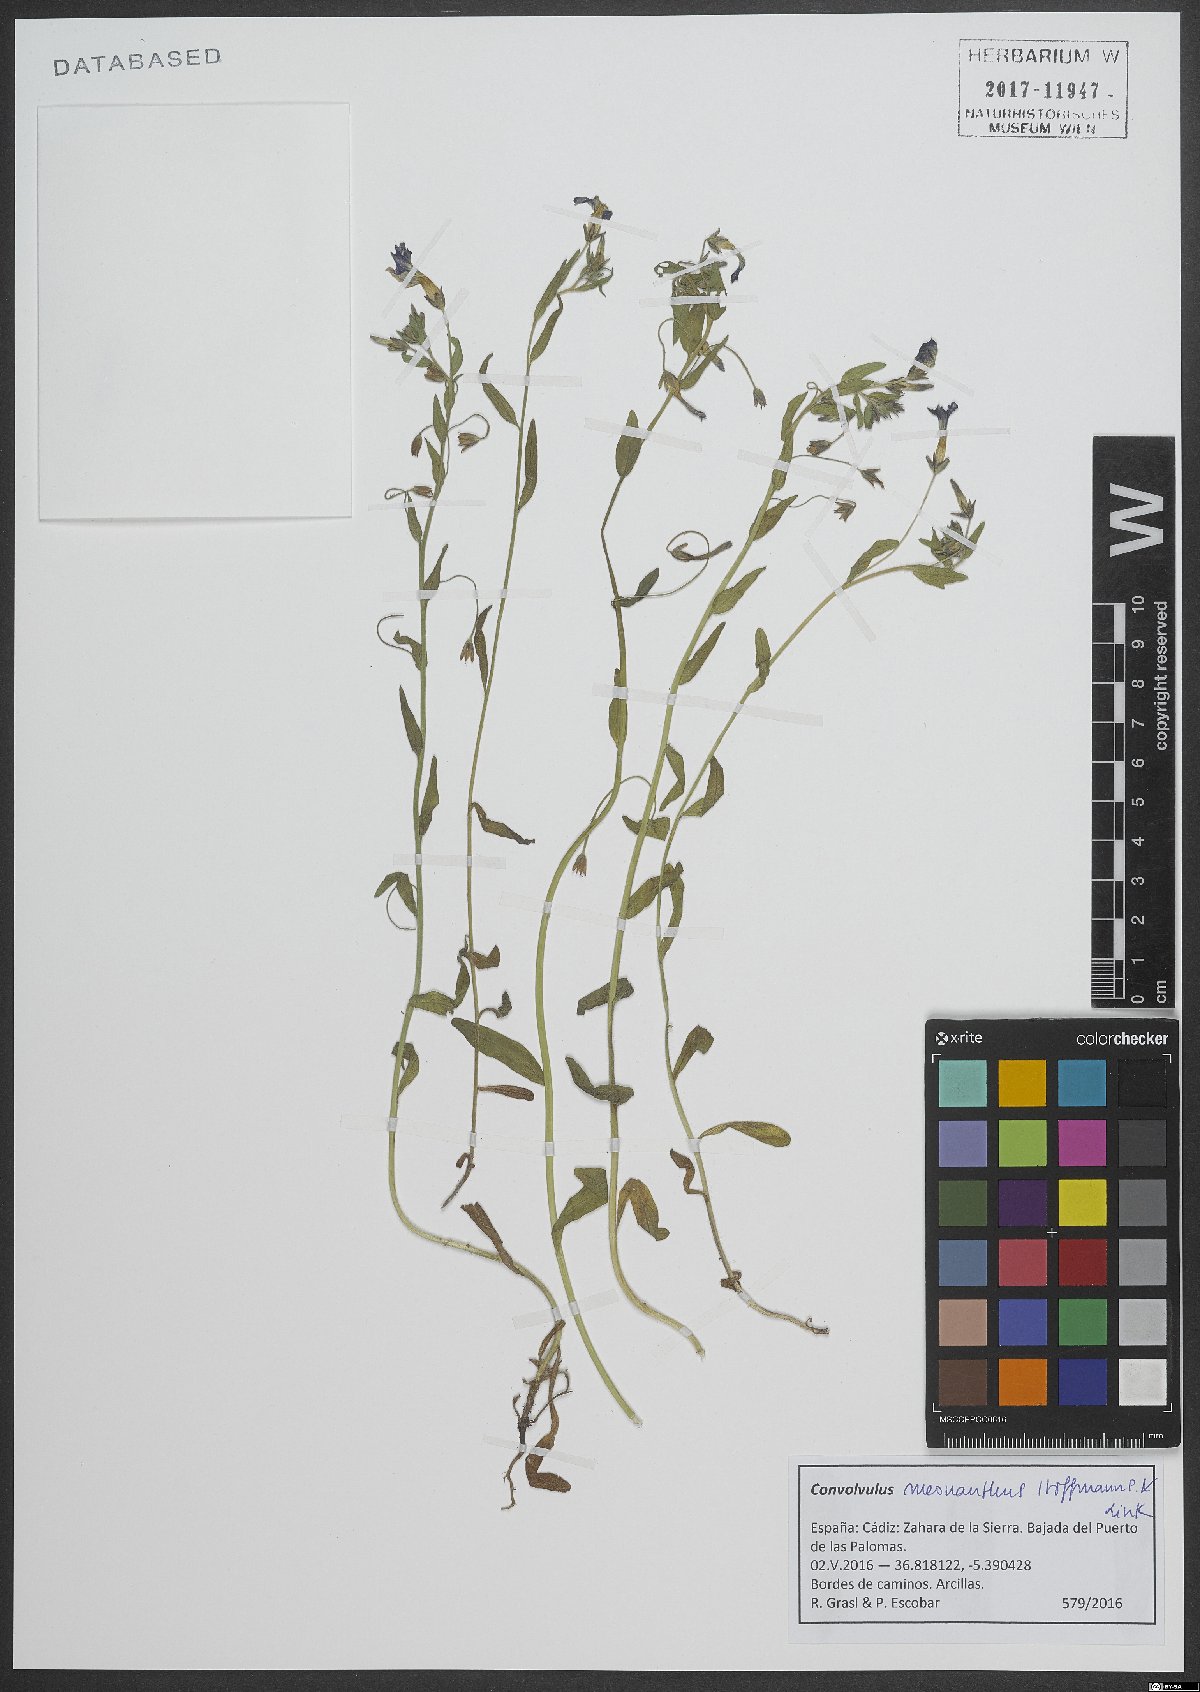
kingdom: Plantae
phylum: Tracheophyta
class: Magnoliopsida
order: Solanales
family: Convolvulaceae
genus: Convolvulus
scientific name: Convolvulus meonanthus
